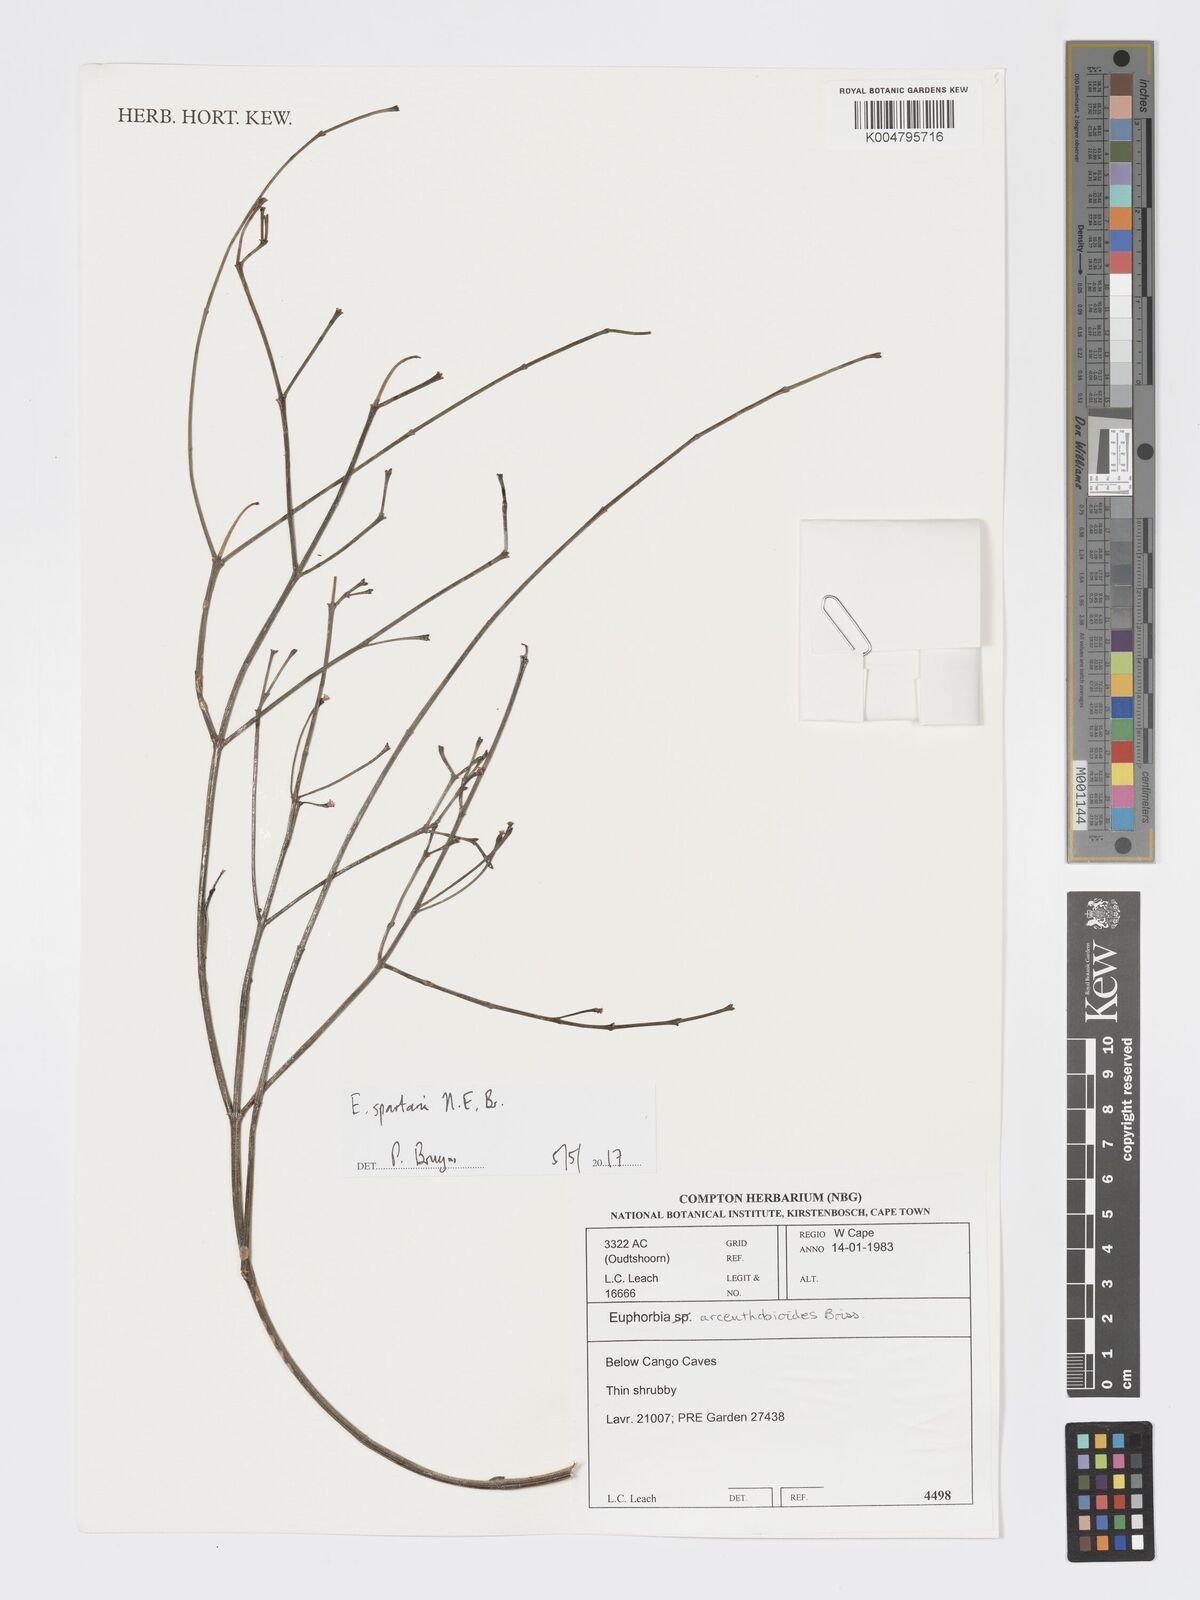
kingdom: Plantae
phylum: Tracheophyta
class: Magnoliopsida
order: Malpighiales
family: Euphorbiaceae
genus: Euphorbia
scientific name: Euphorbia spartaria
